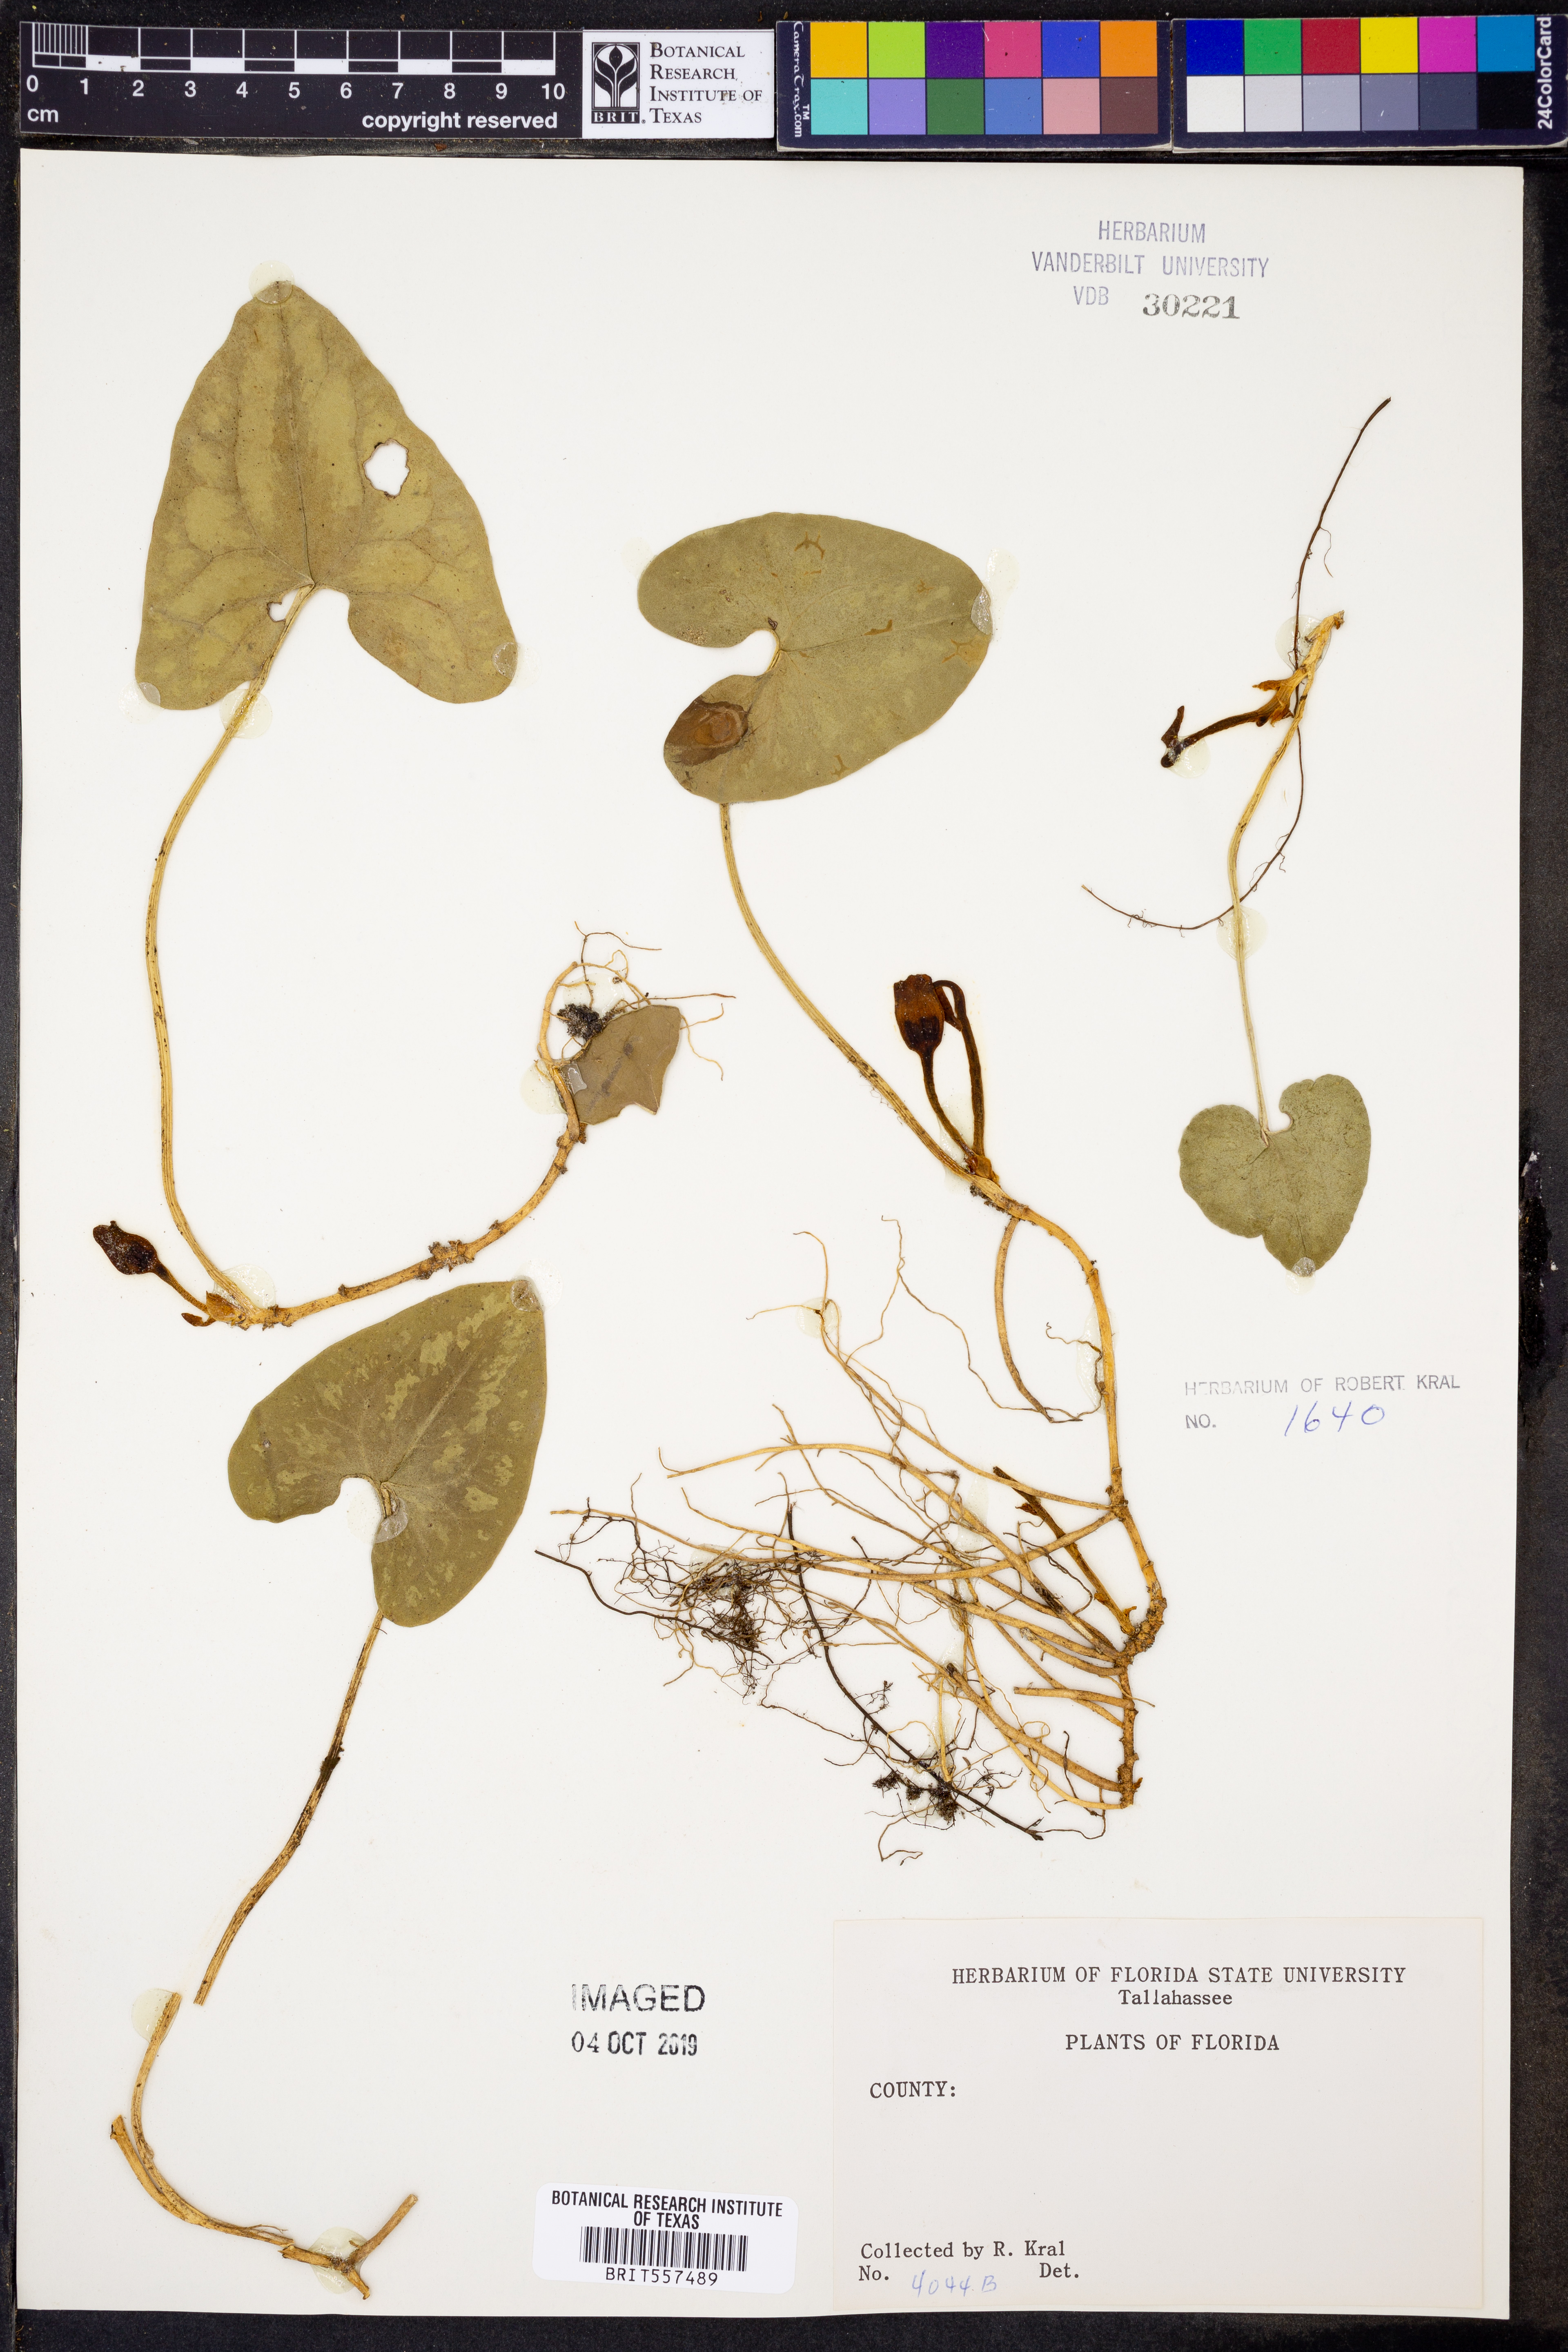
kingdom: Plantae
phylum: Tracheophyta
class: Magnoliopsida
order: Piperales
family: Aristolochiaceae
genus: Hexastylis
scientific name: Hexastylis arifolia
